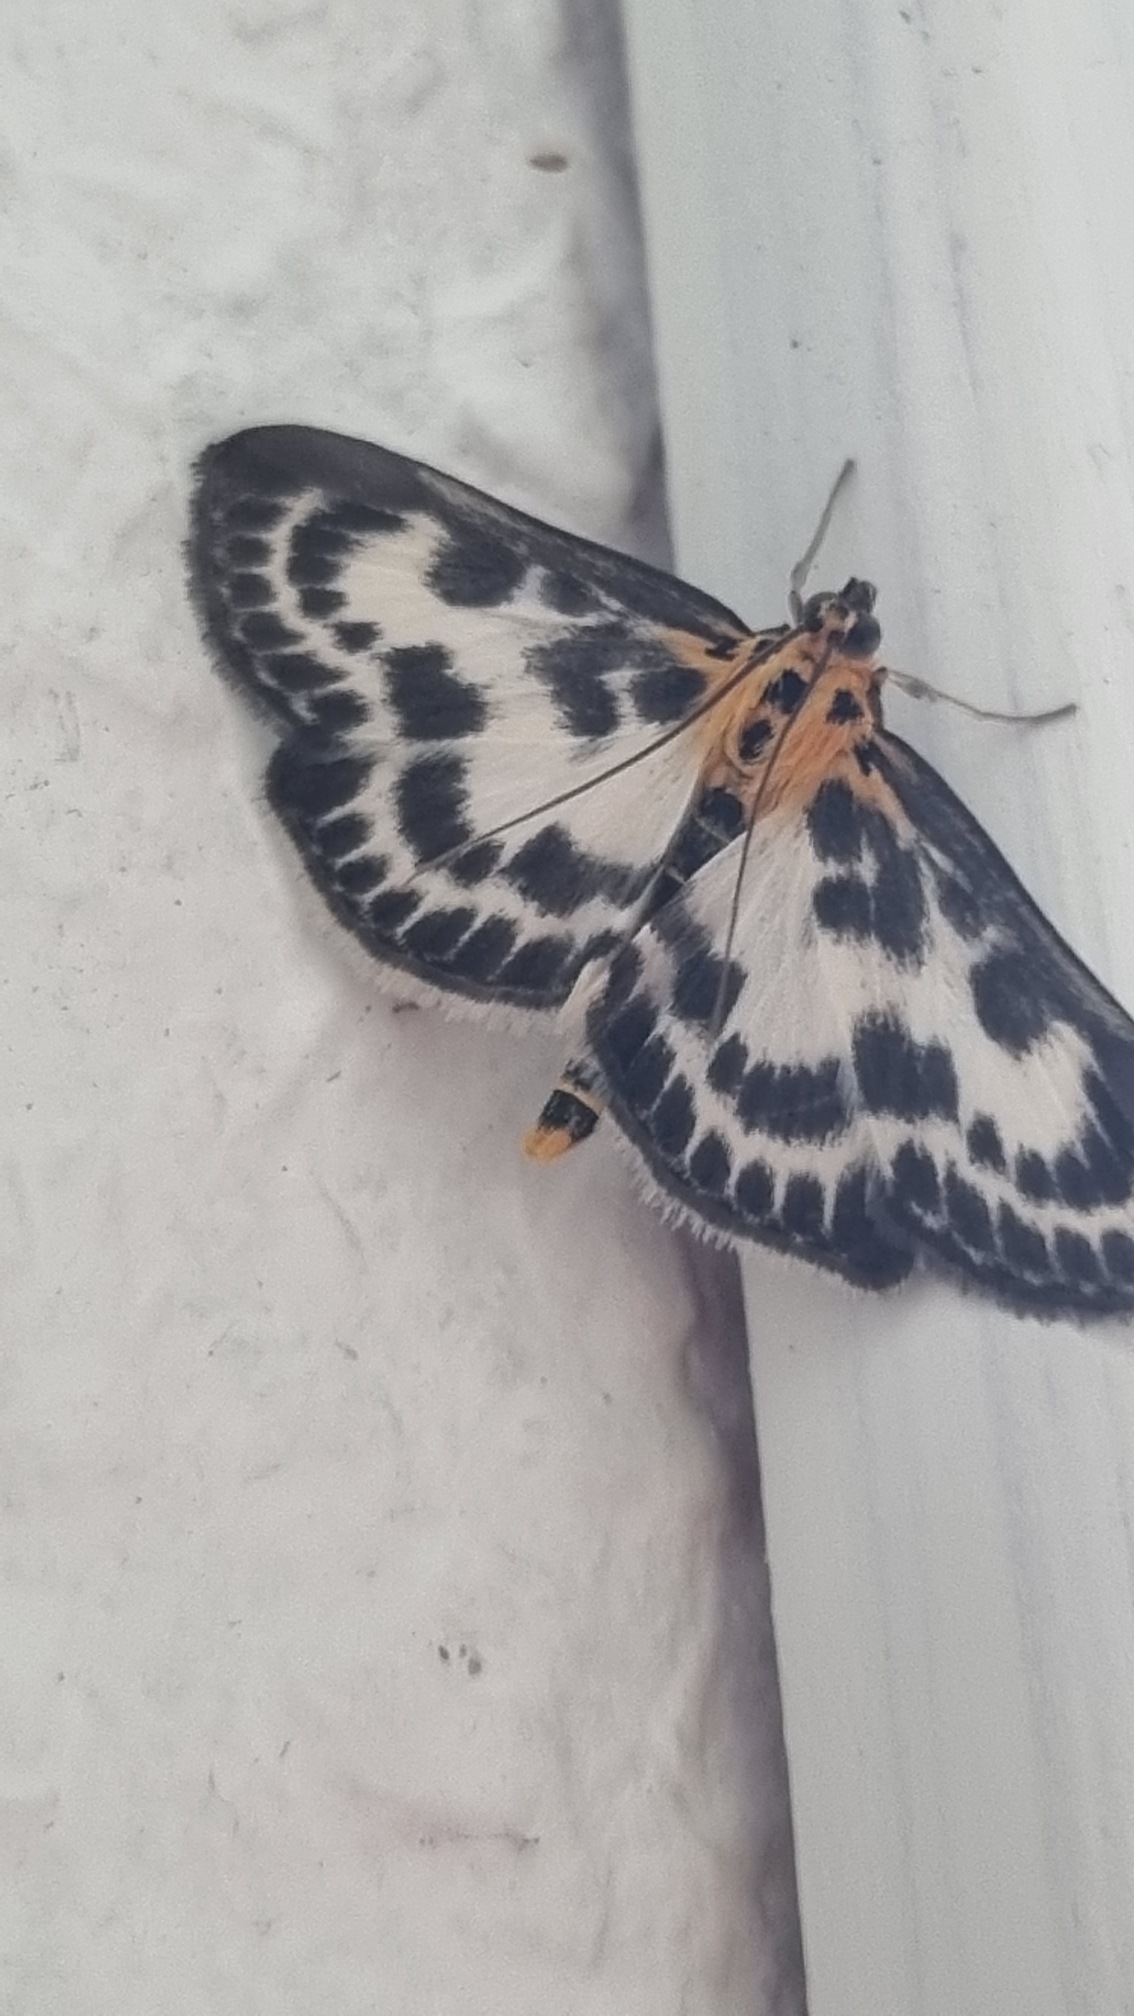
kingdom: Animalia
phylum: Arthropoda
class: Insecta
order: Lepidoptera
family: Crambidae
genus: Anania
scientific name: Anania hortulata
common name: Nældehalvmøl
